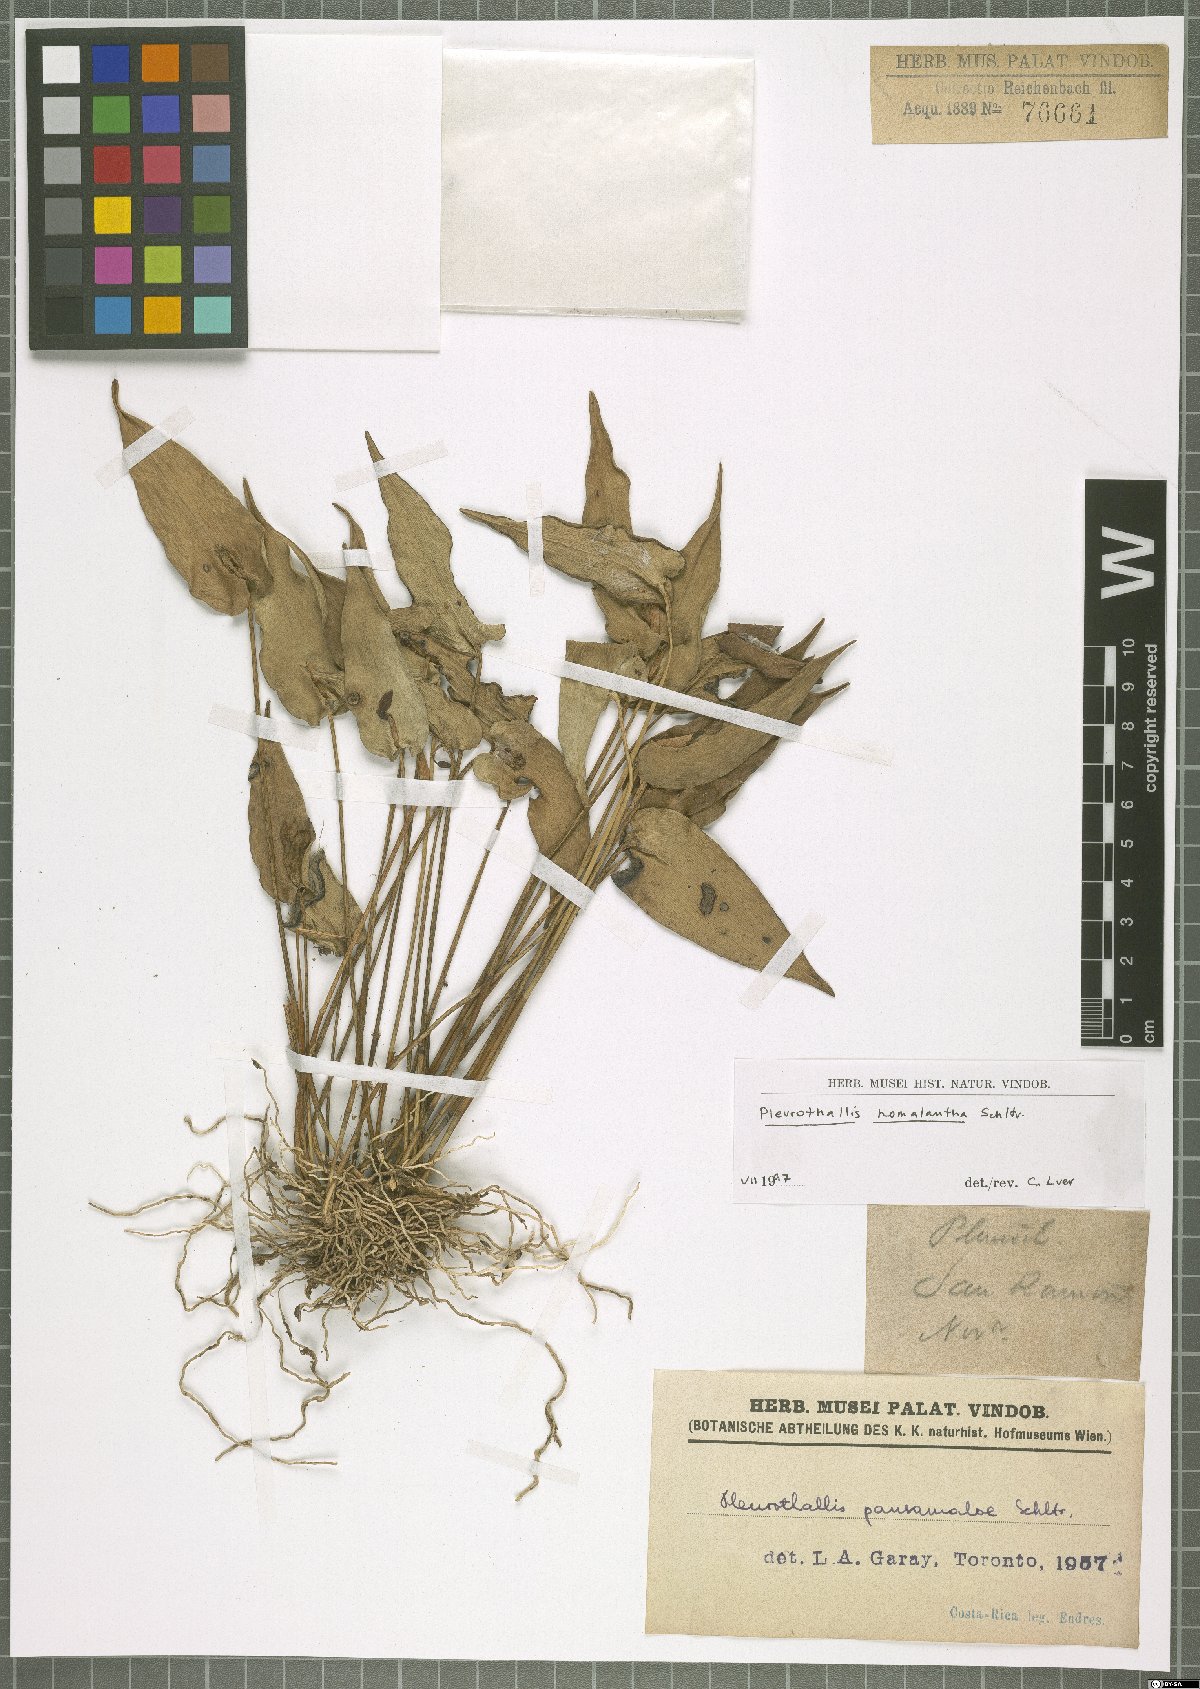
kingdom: Plantae
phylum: Tracheophyta
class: Liliopsida
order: Asparagales
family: Orchidaceae
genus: Pleurothallis
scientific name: Pleurothallis homalantha
